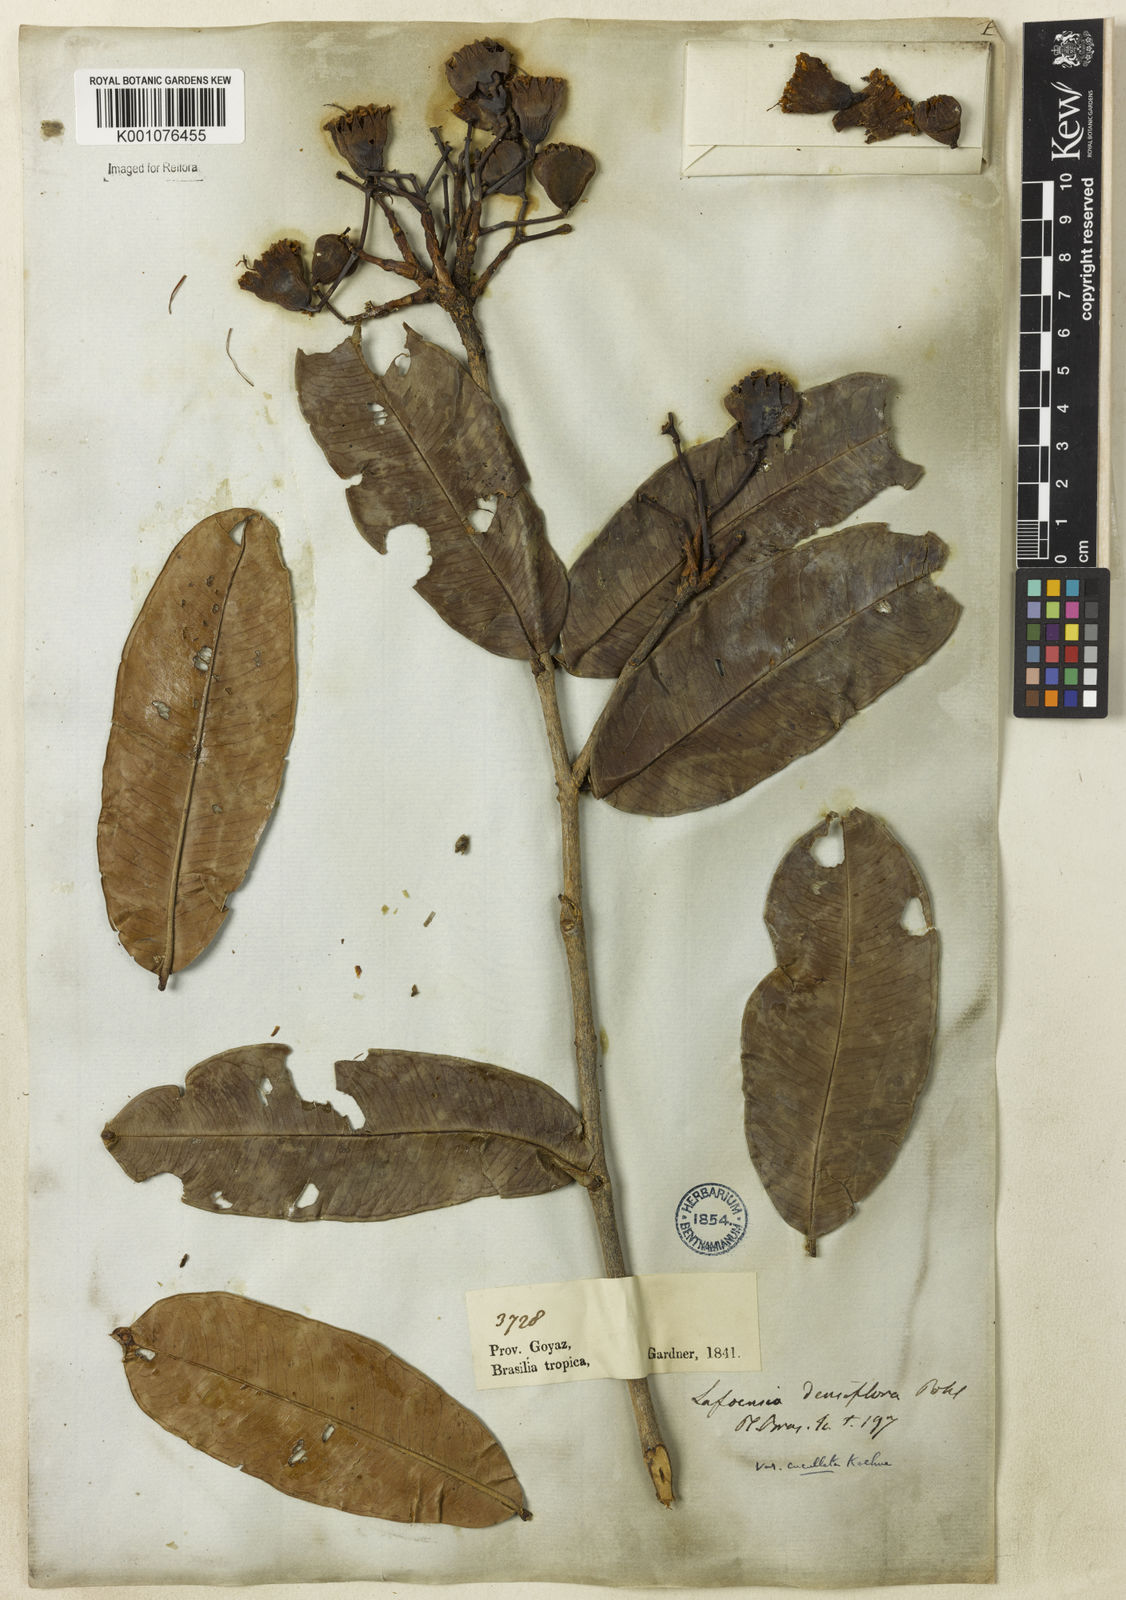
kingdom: Plantae
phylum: Tracheophyta
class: Magnoliopsida
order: Myrtales
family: Lythraceae
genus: Lafoensia
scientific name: Lafoensia vandelliana
